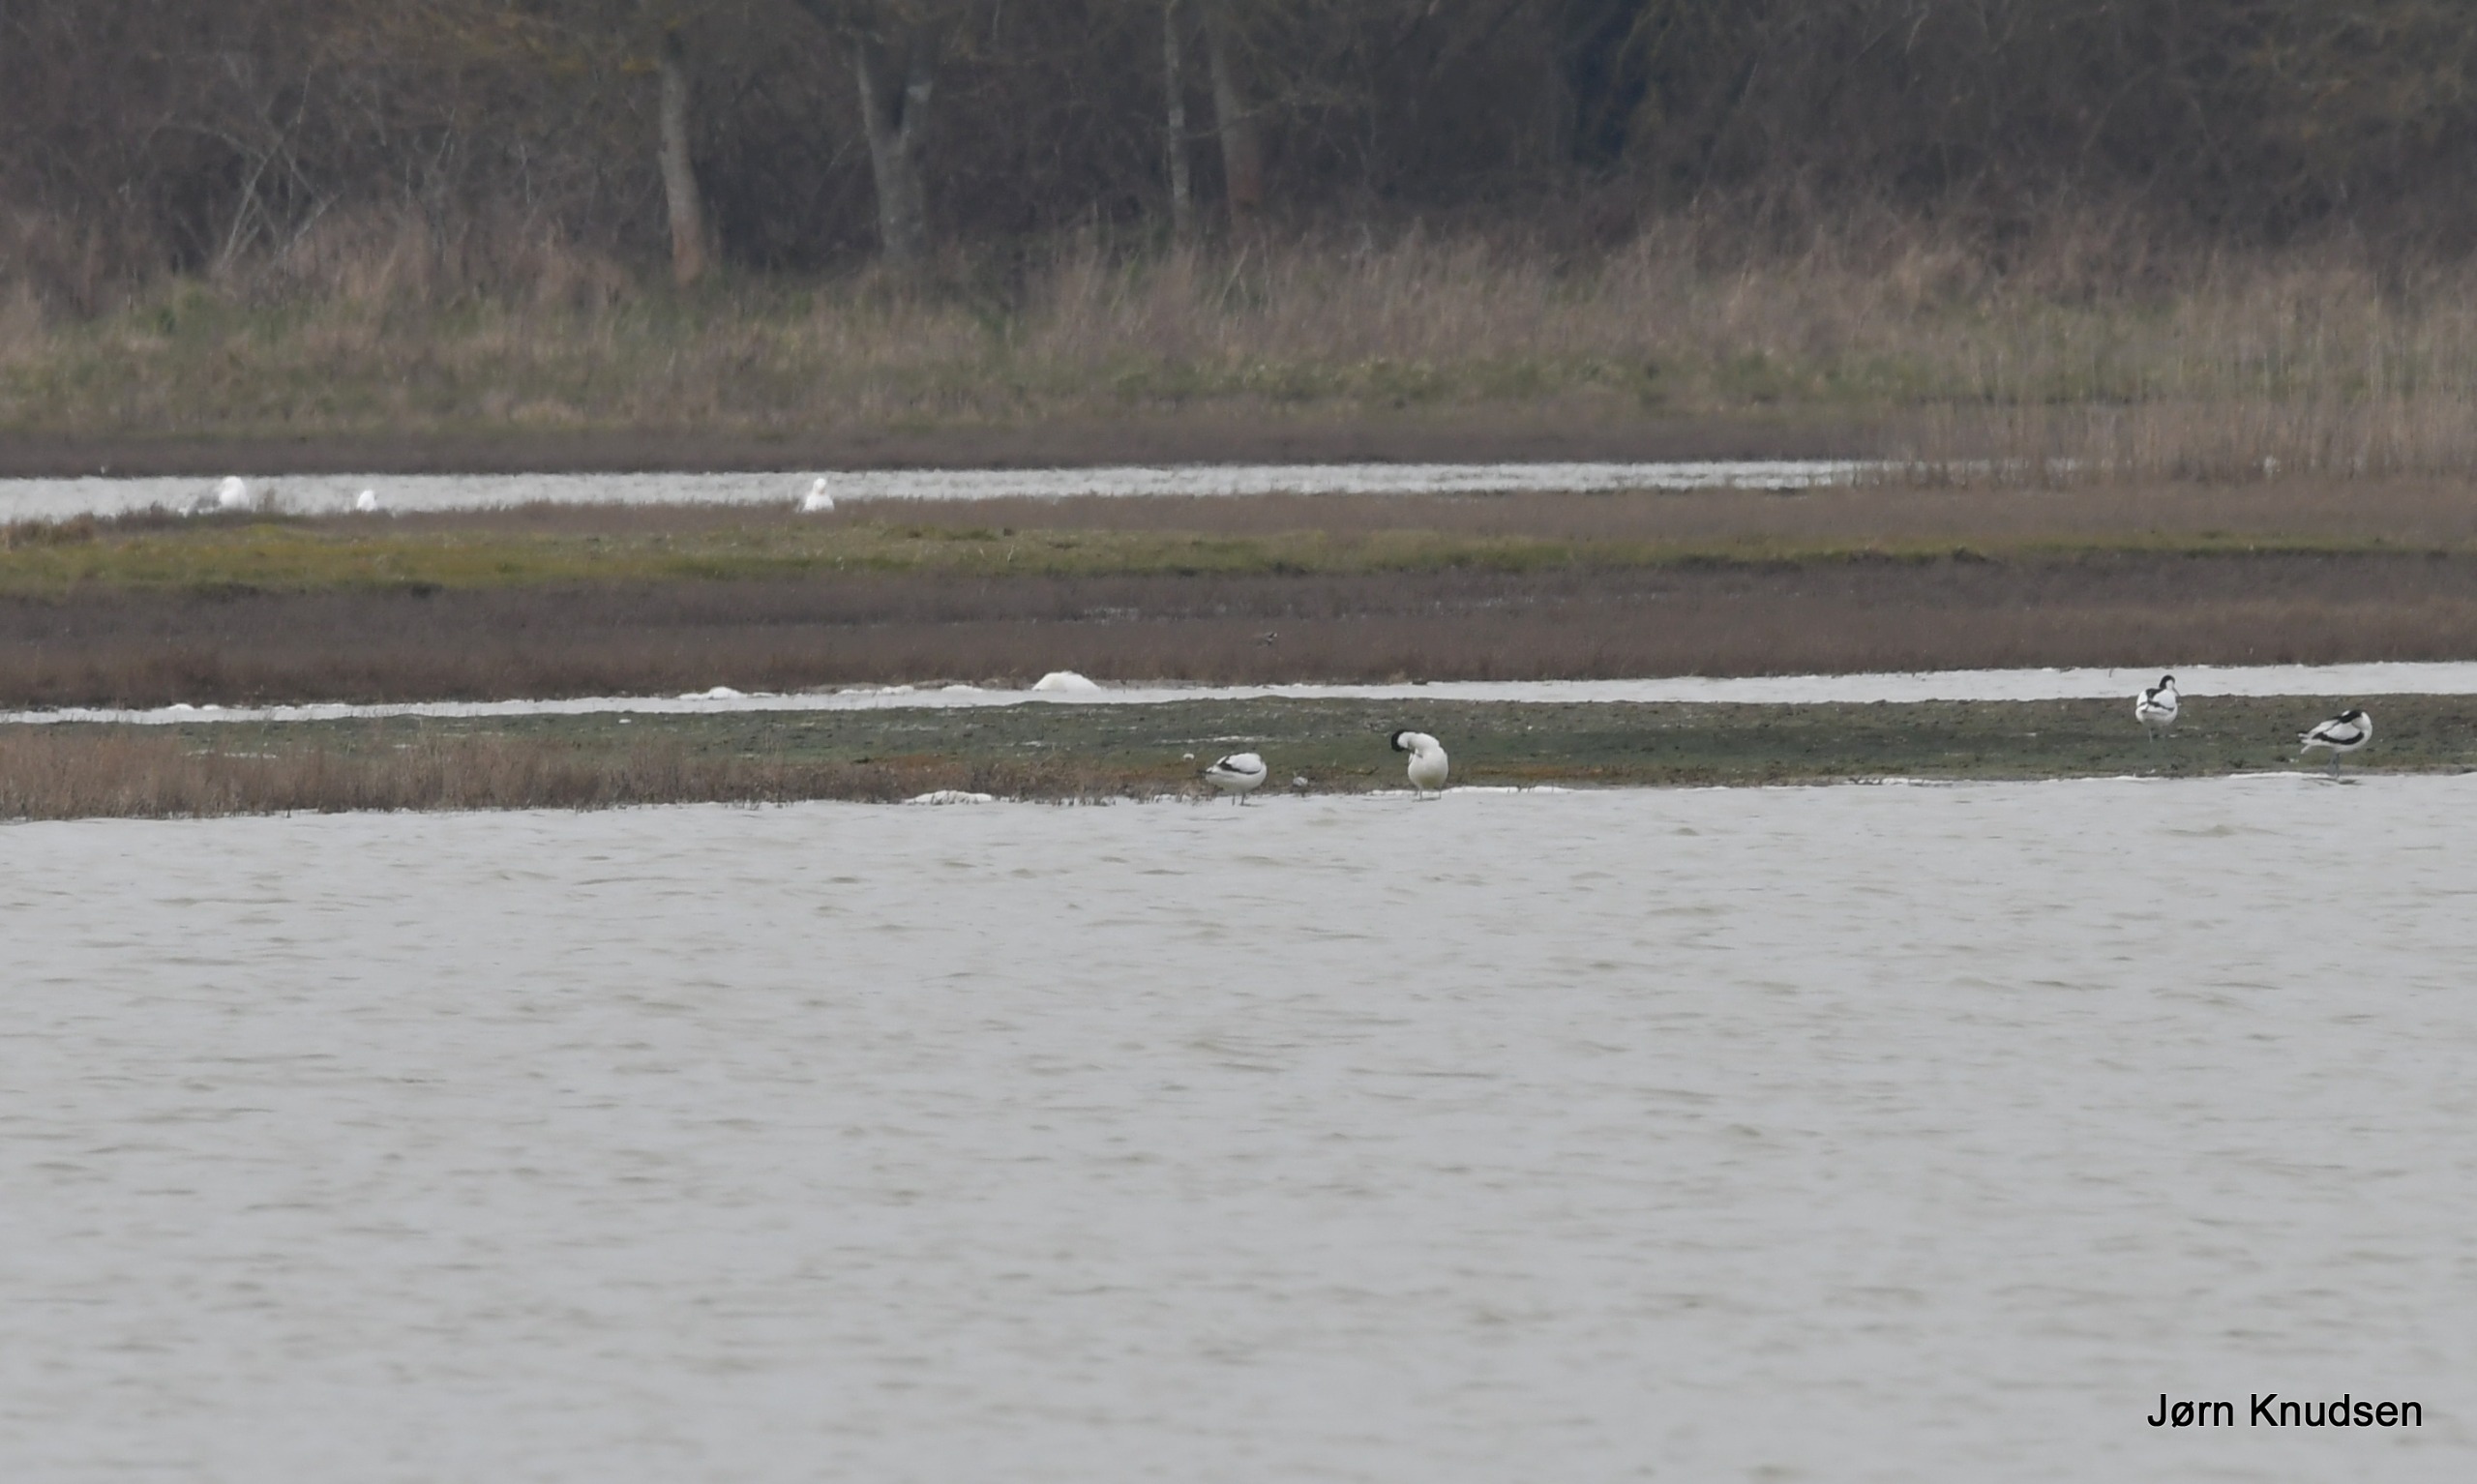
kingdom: Animalia
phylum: Chordata
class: Aves
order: Charadriiformes
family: Recurvirostridae
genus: Recurvirostra
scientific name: Recurvirostra avosetta
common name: Klyde
